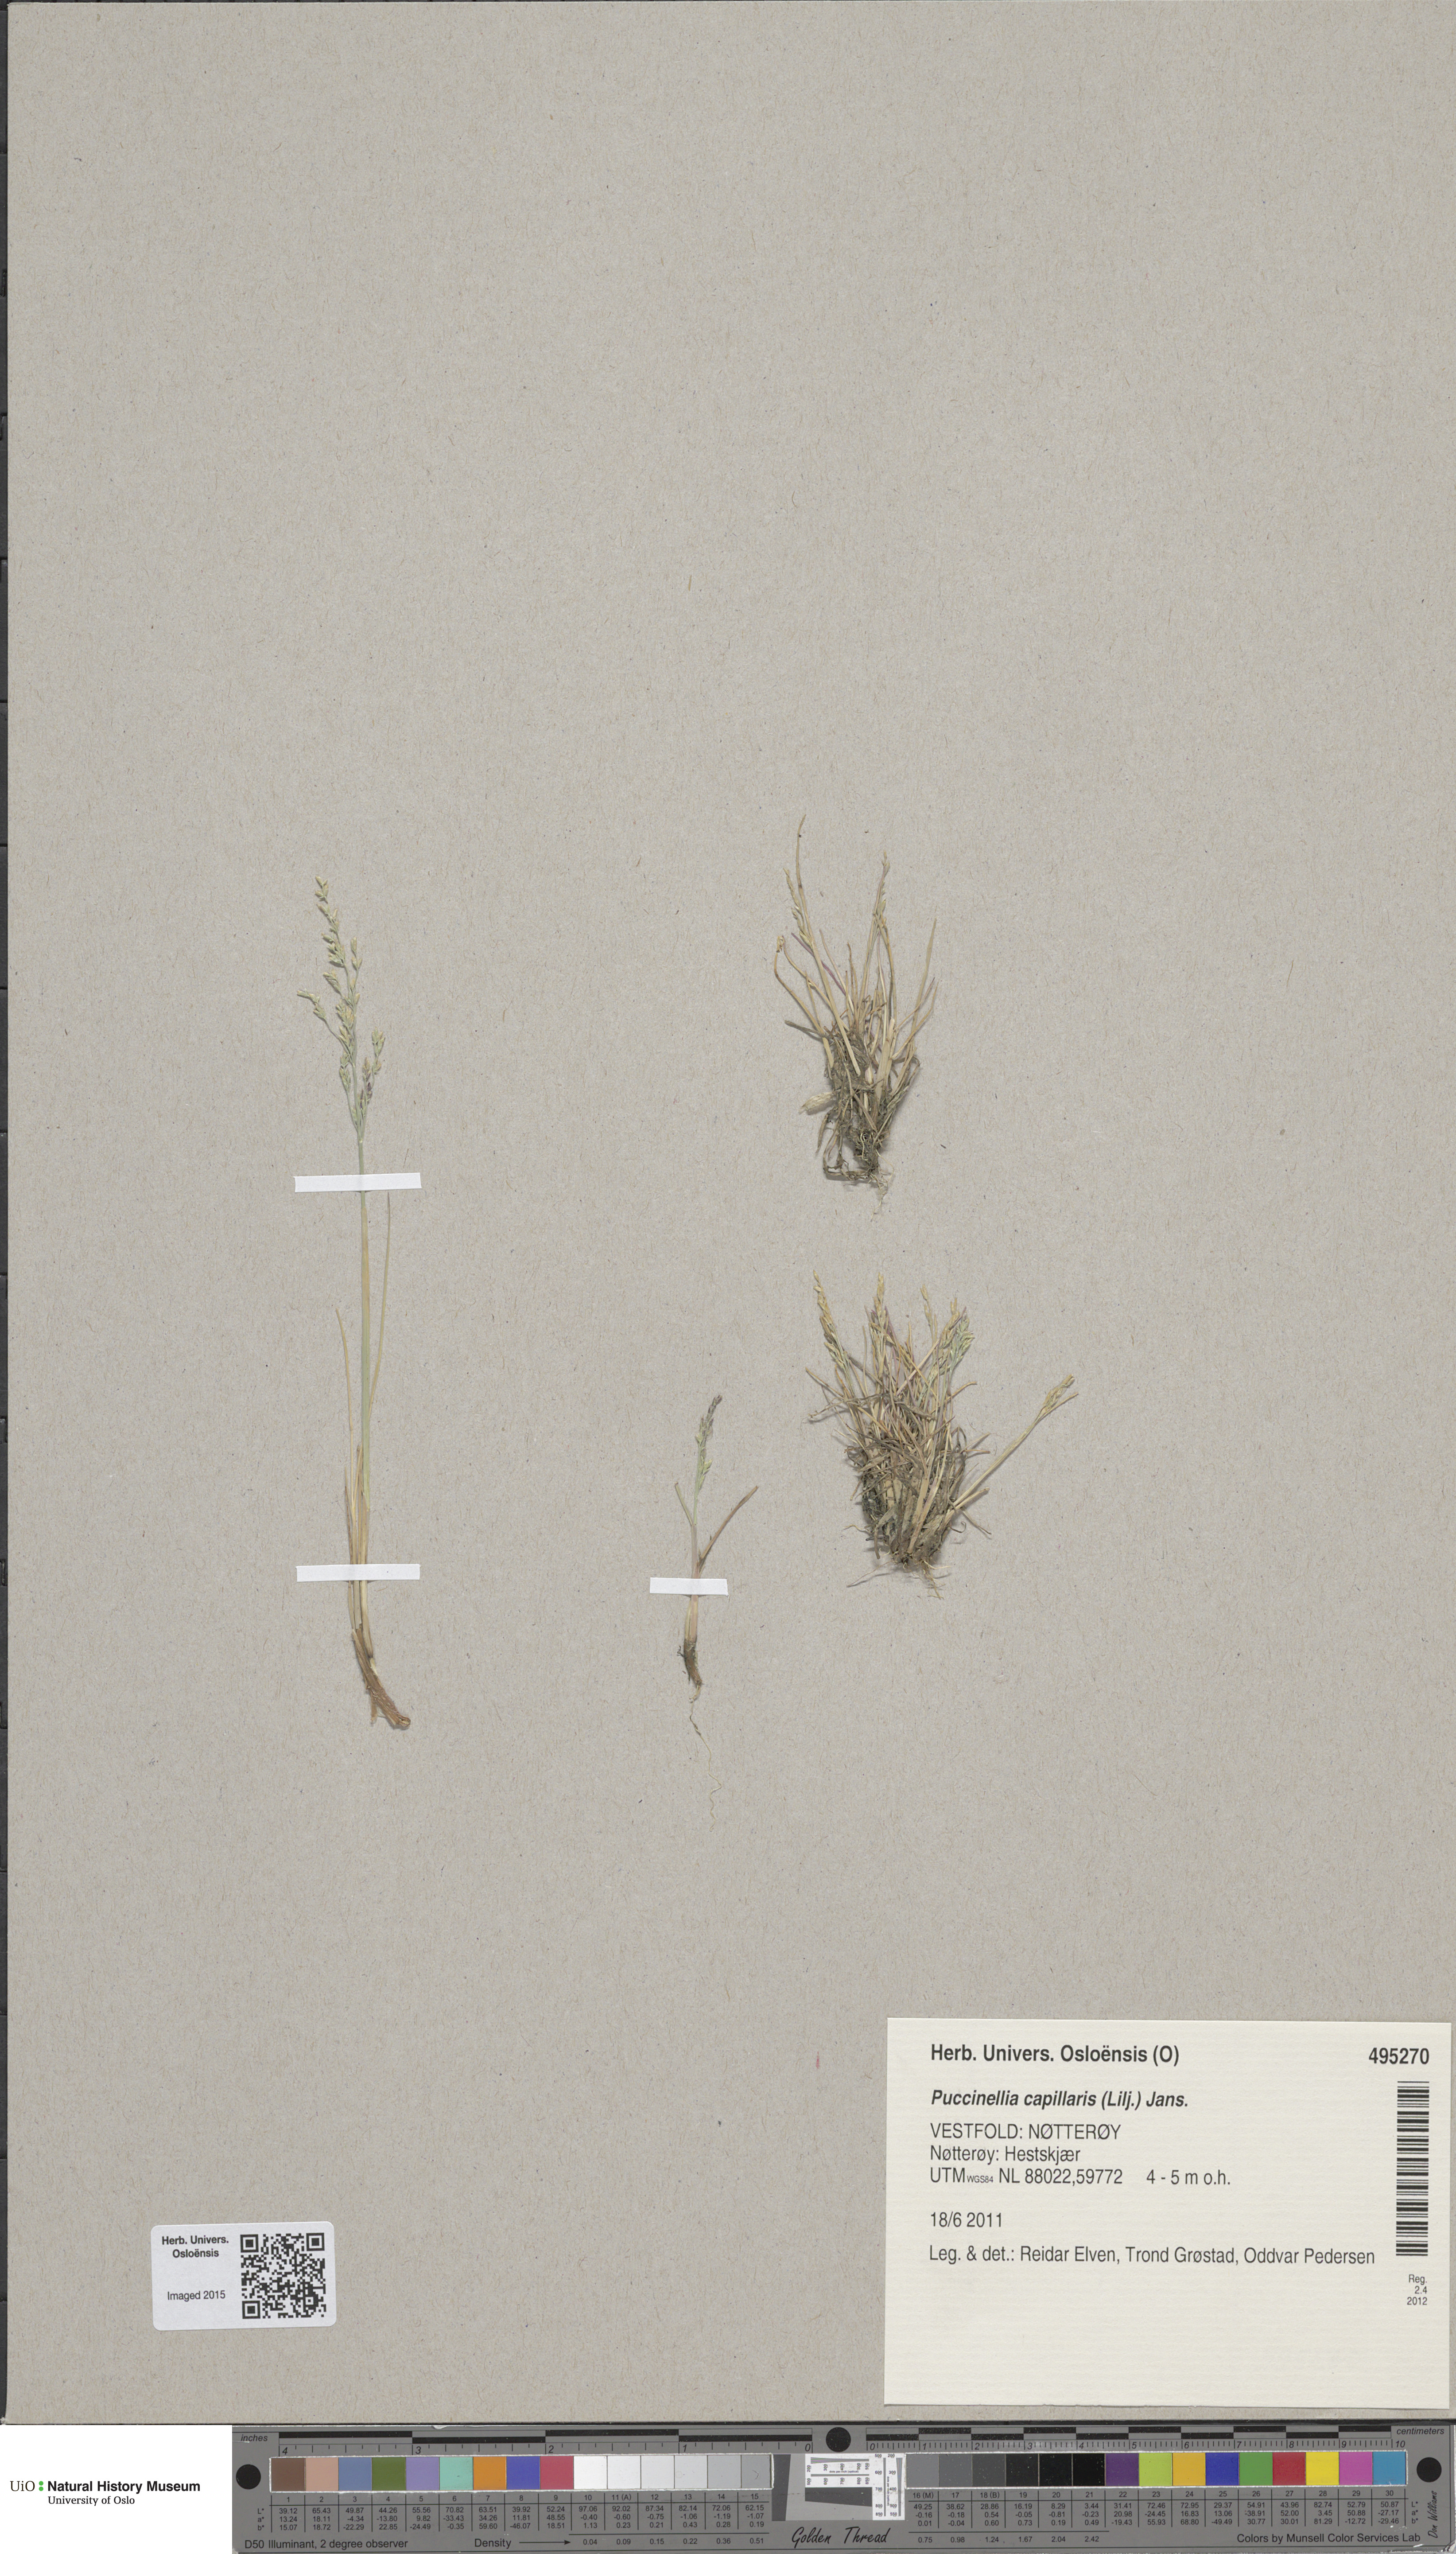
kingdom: Plantae
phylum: Tracheophyta
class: Liliopsida
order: Poales
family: Poaceae
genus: Puccinellia
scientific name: Puccinellia distans
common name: Weeping alkaligrass
